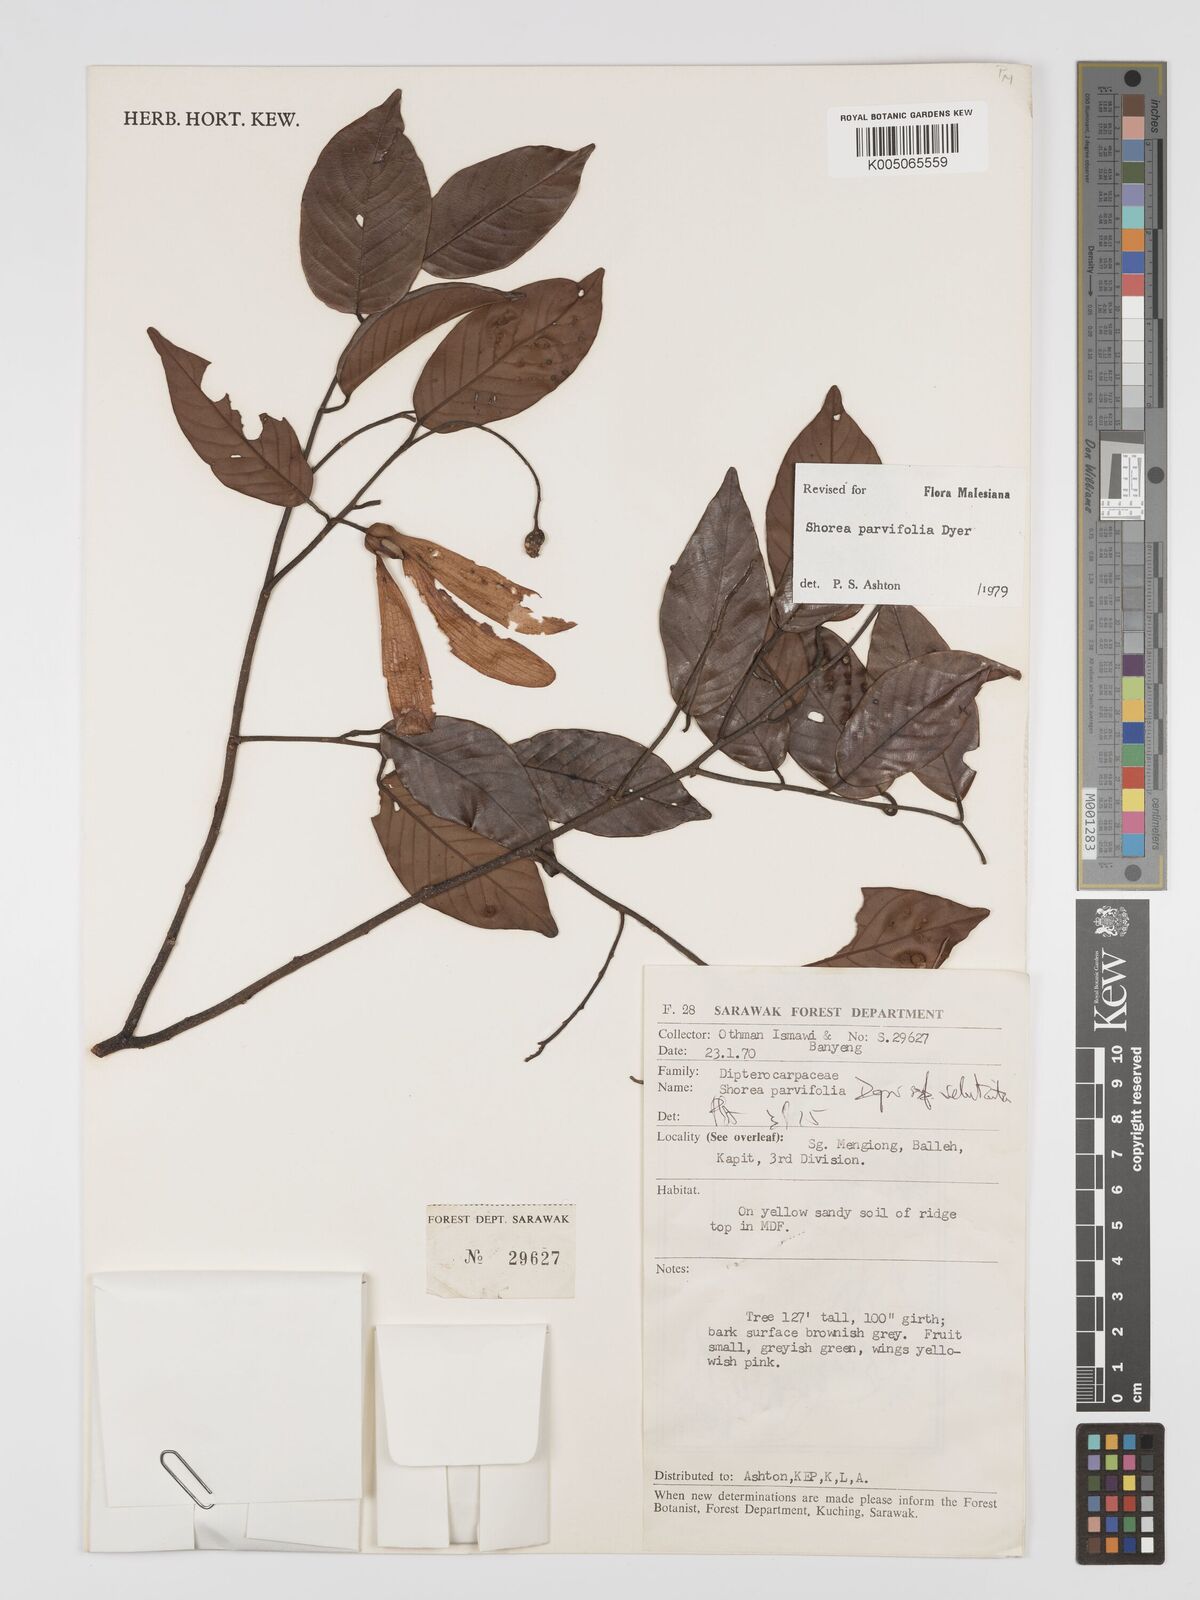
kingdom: Plantae
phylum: Tracheophyta
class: Magnoliopsida
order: Malvales
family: Dipterocarpaceae
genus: Shorea
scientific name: Shorea parvifolia
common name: Light red meranti
